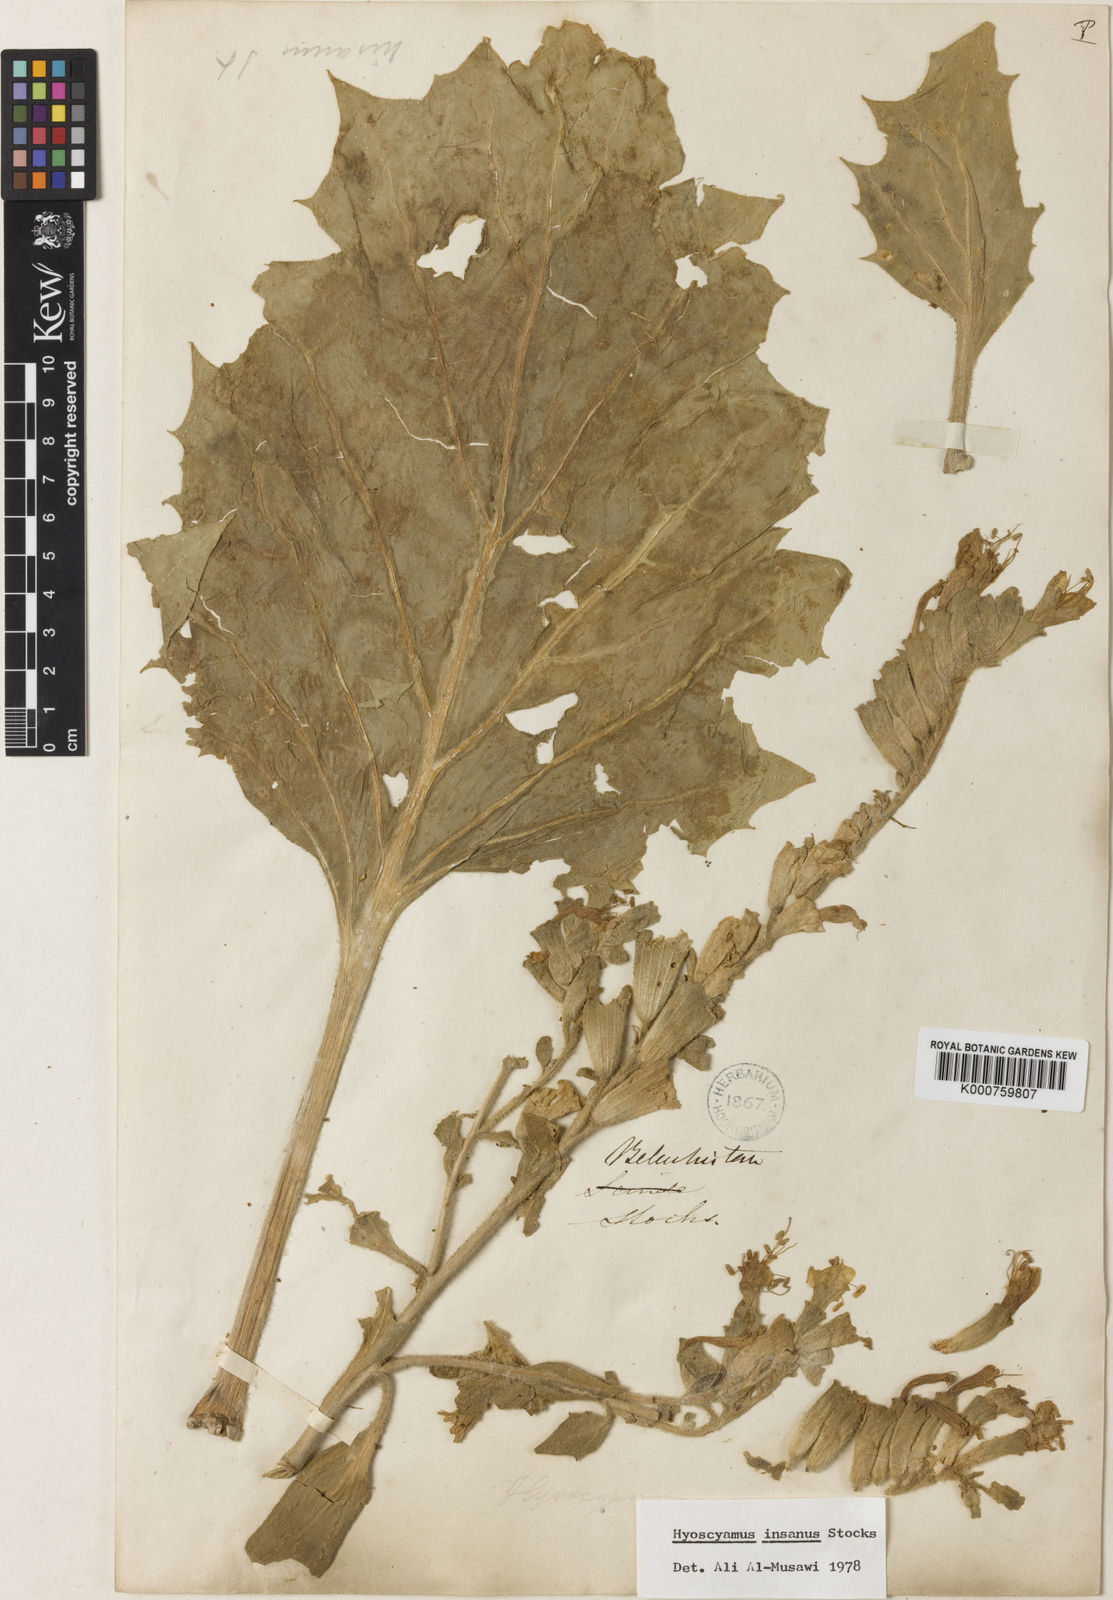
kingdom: Plantae
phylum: Tracheophyta
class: Magnoliopsida
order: Solanales
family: Solanaceae
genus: Hyoscyamus
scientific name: Hyoscyamus insanus
